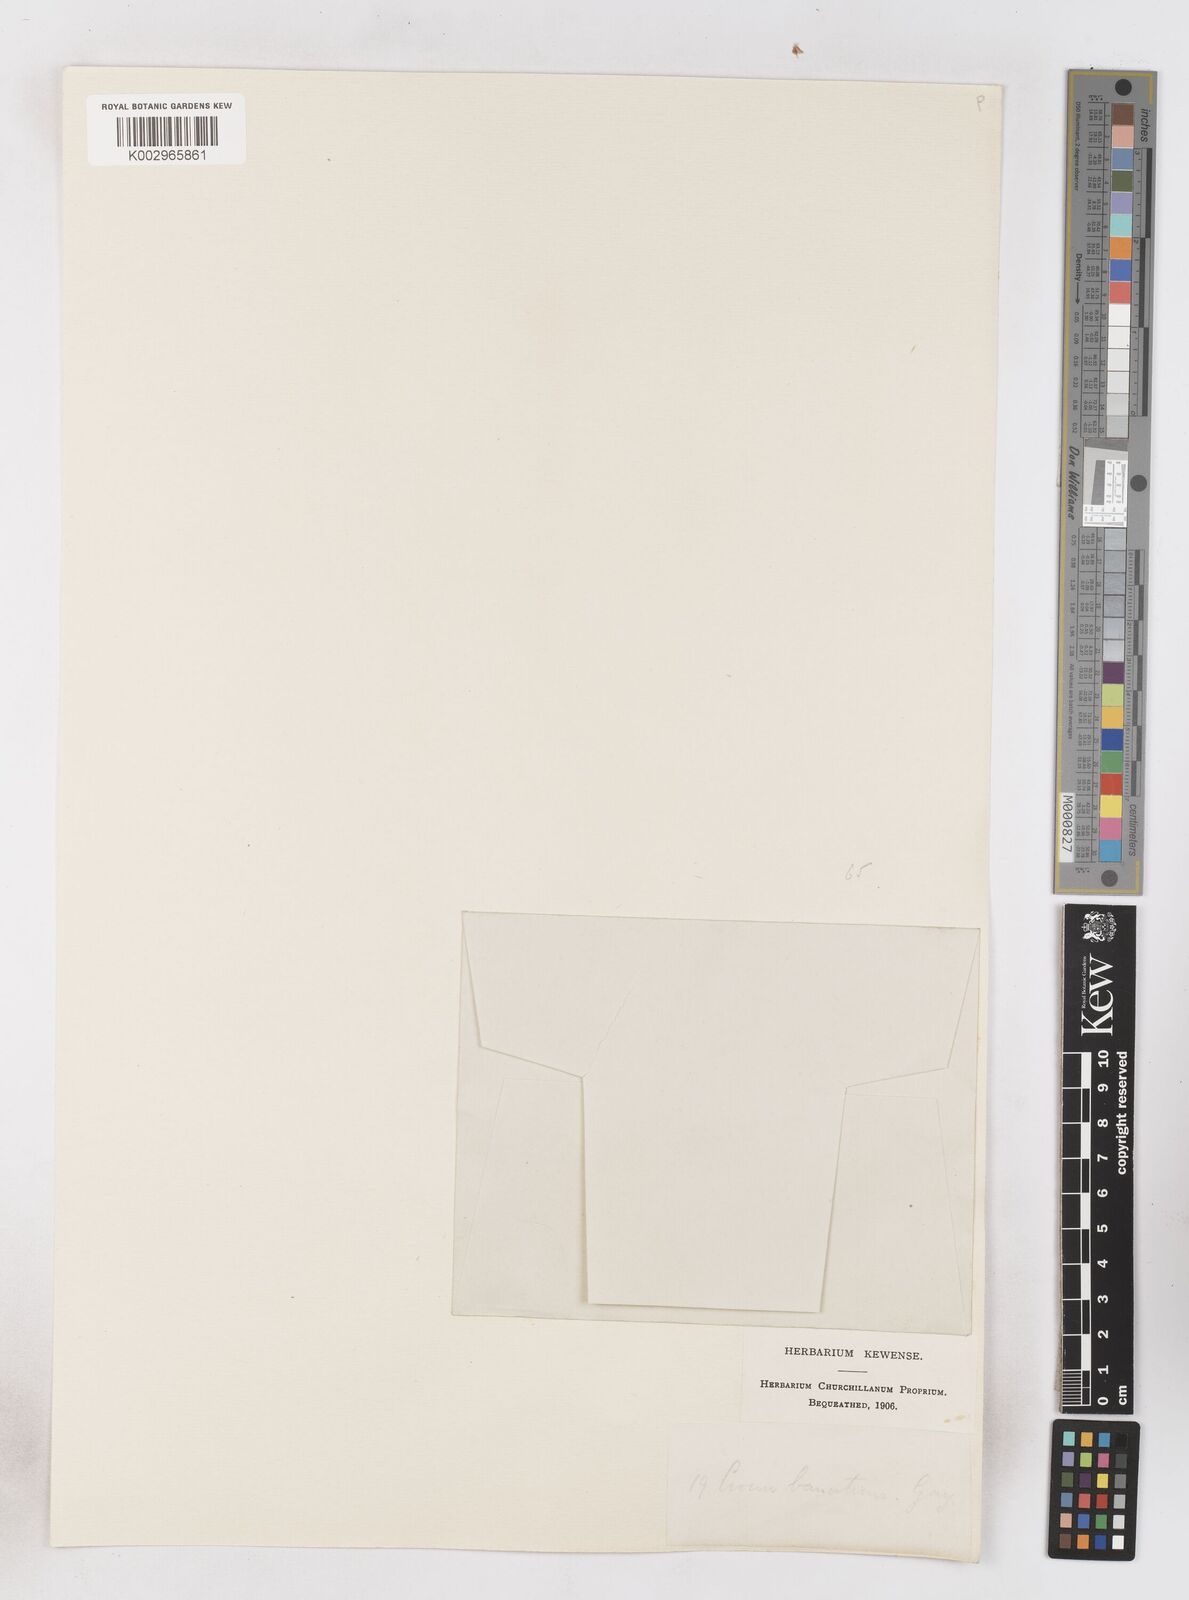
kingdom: Plantae
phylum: Tracheophyta
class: Liliopsida
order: Asparagales
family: Iridaceae
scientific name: Iridaceae
